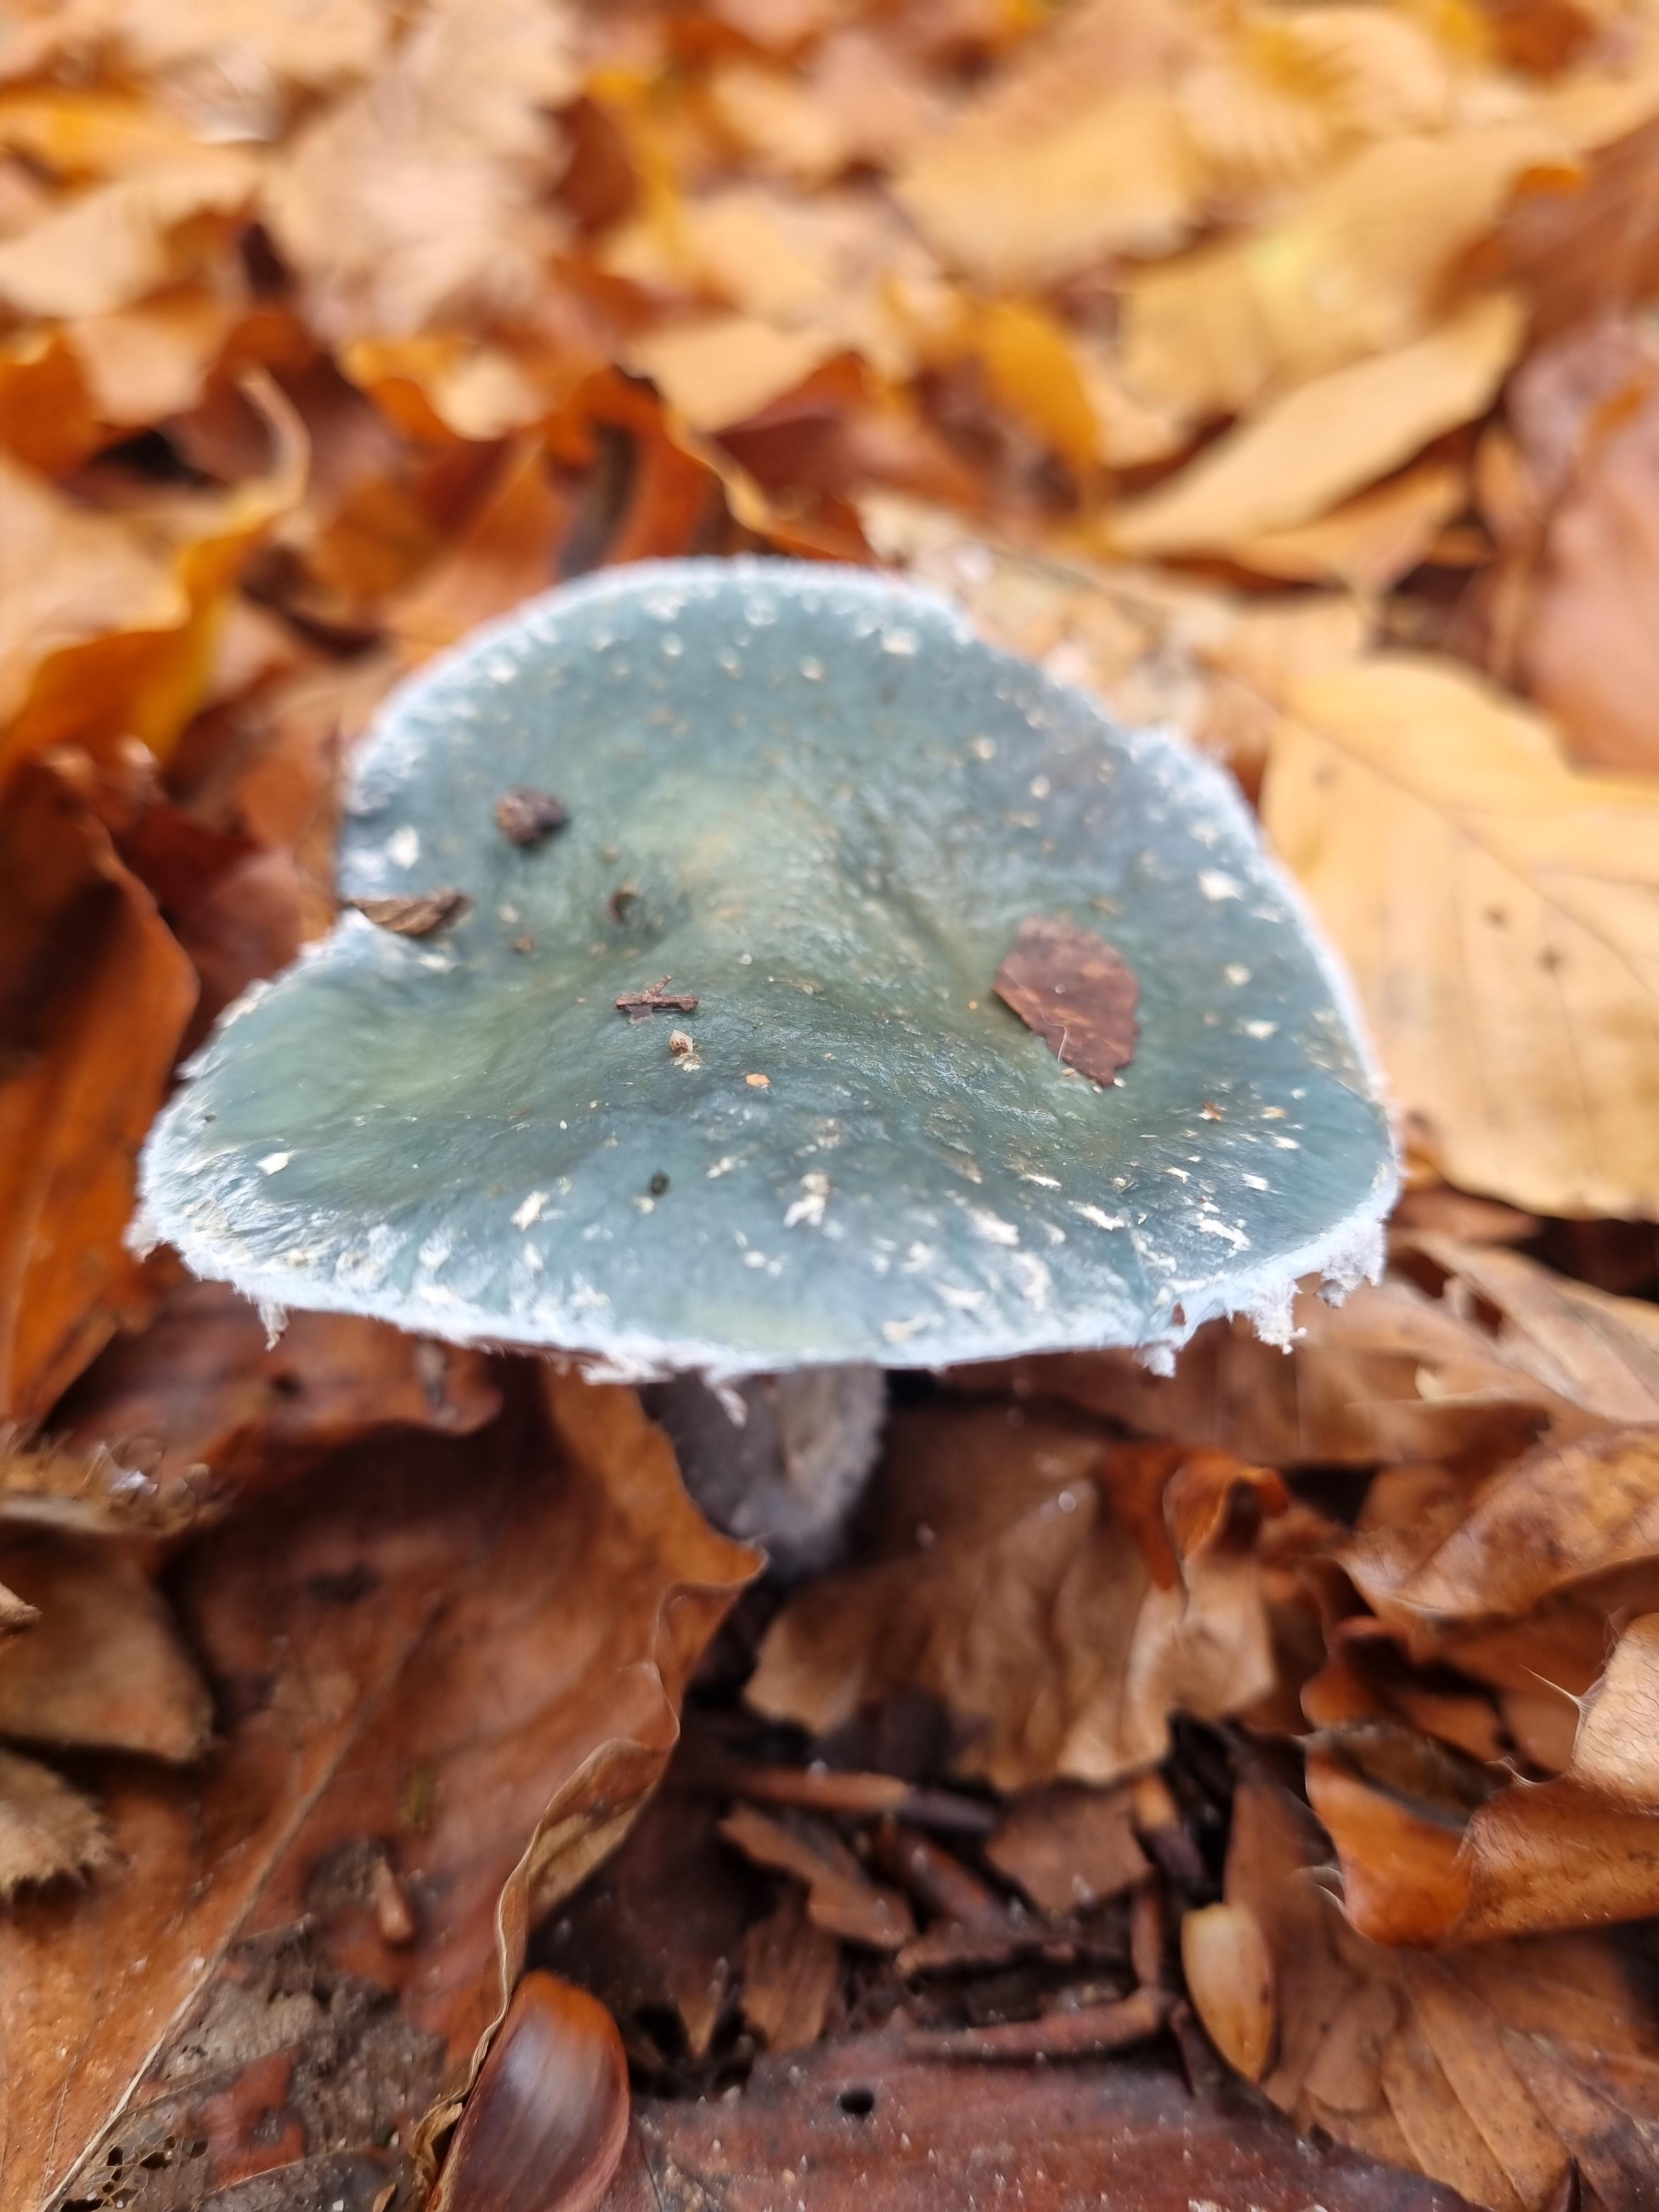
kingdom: Fungi
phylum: Basidiomycota
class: Agaricomycetes
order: Agaricales
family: Strophariaceae
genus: Stropharia
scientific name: Stropharia cyanea
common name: blågrøn bredblad
